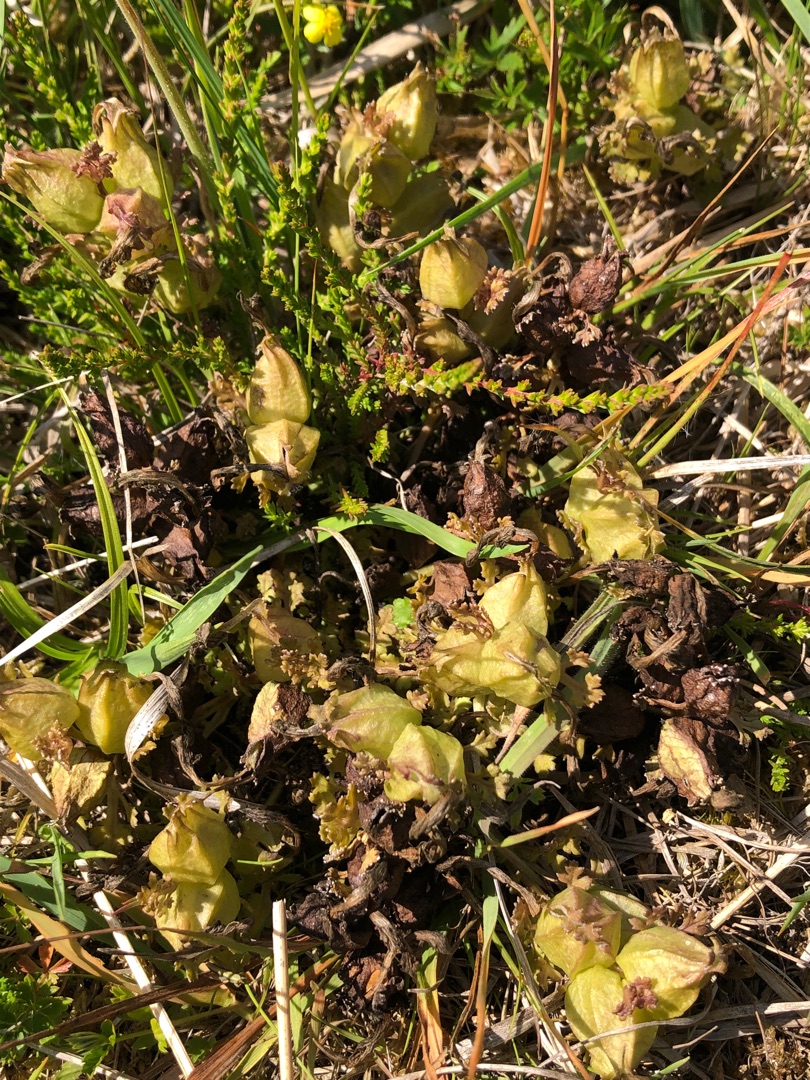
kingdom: Plantae
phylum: Tracheophyta
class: Magnoliopsida
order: Lamiales
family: Orobanchaceae
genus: Pedicularis
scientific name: Pedicularis sylvatica
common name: Mose-troldurt
